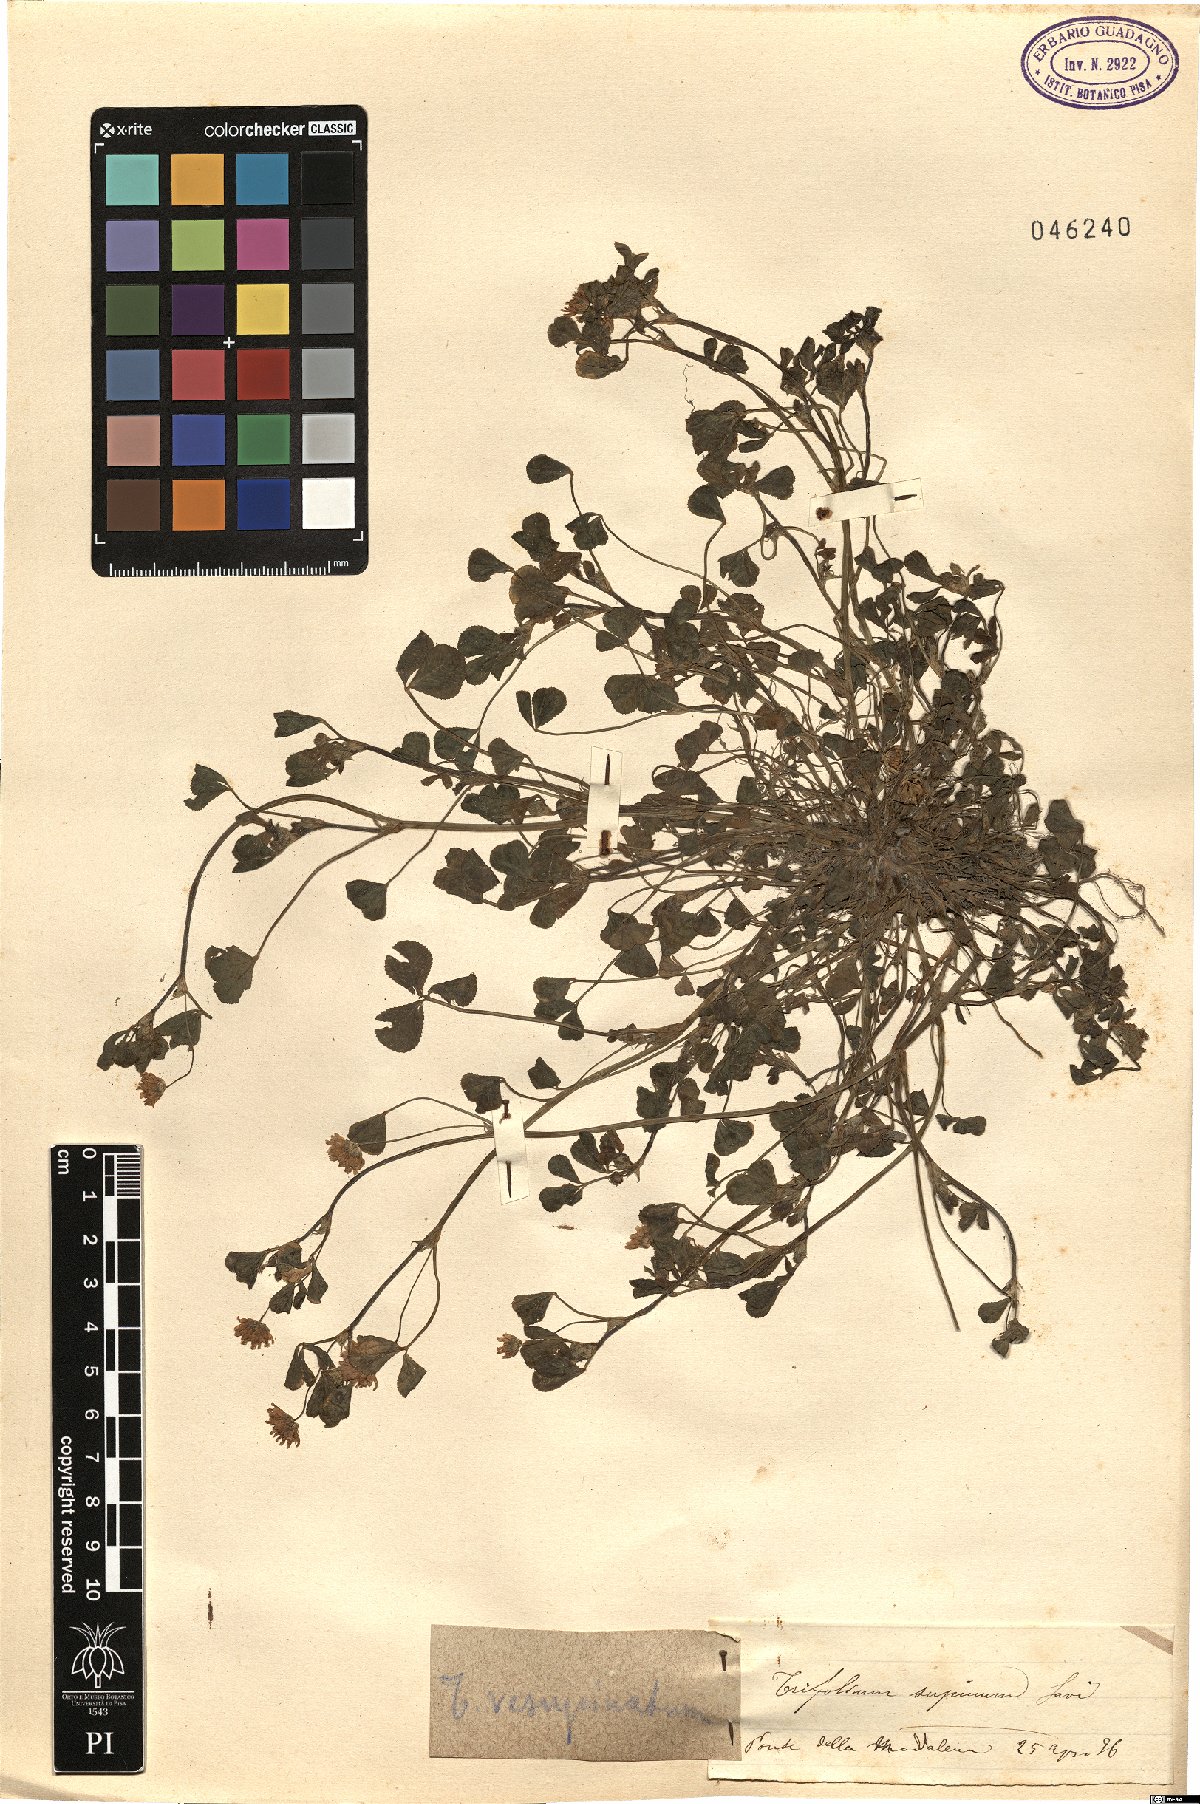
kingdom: Plantae
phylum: Tracheophyta
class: Magnoliopsida
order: Fabales
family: Fabaceae
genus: Trifolium
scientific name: Trifolium resupinatum
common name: Reversed clover
